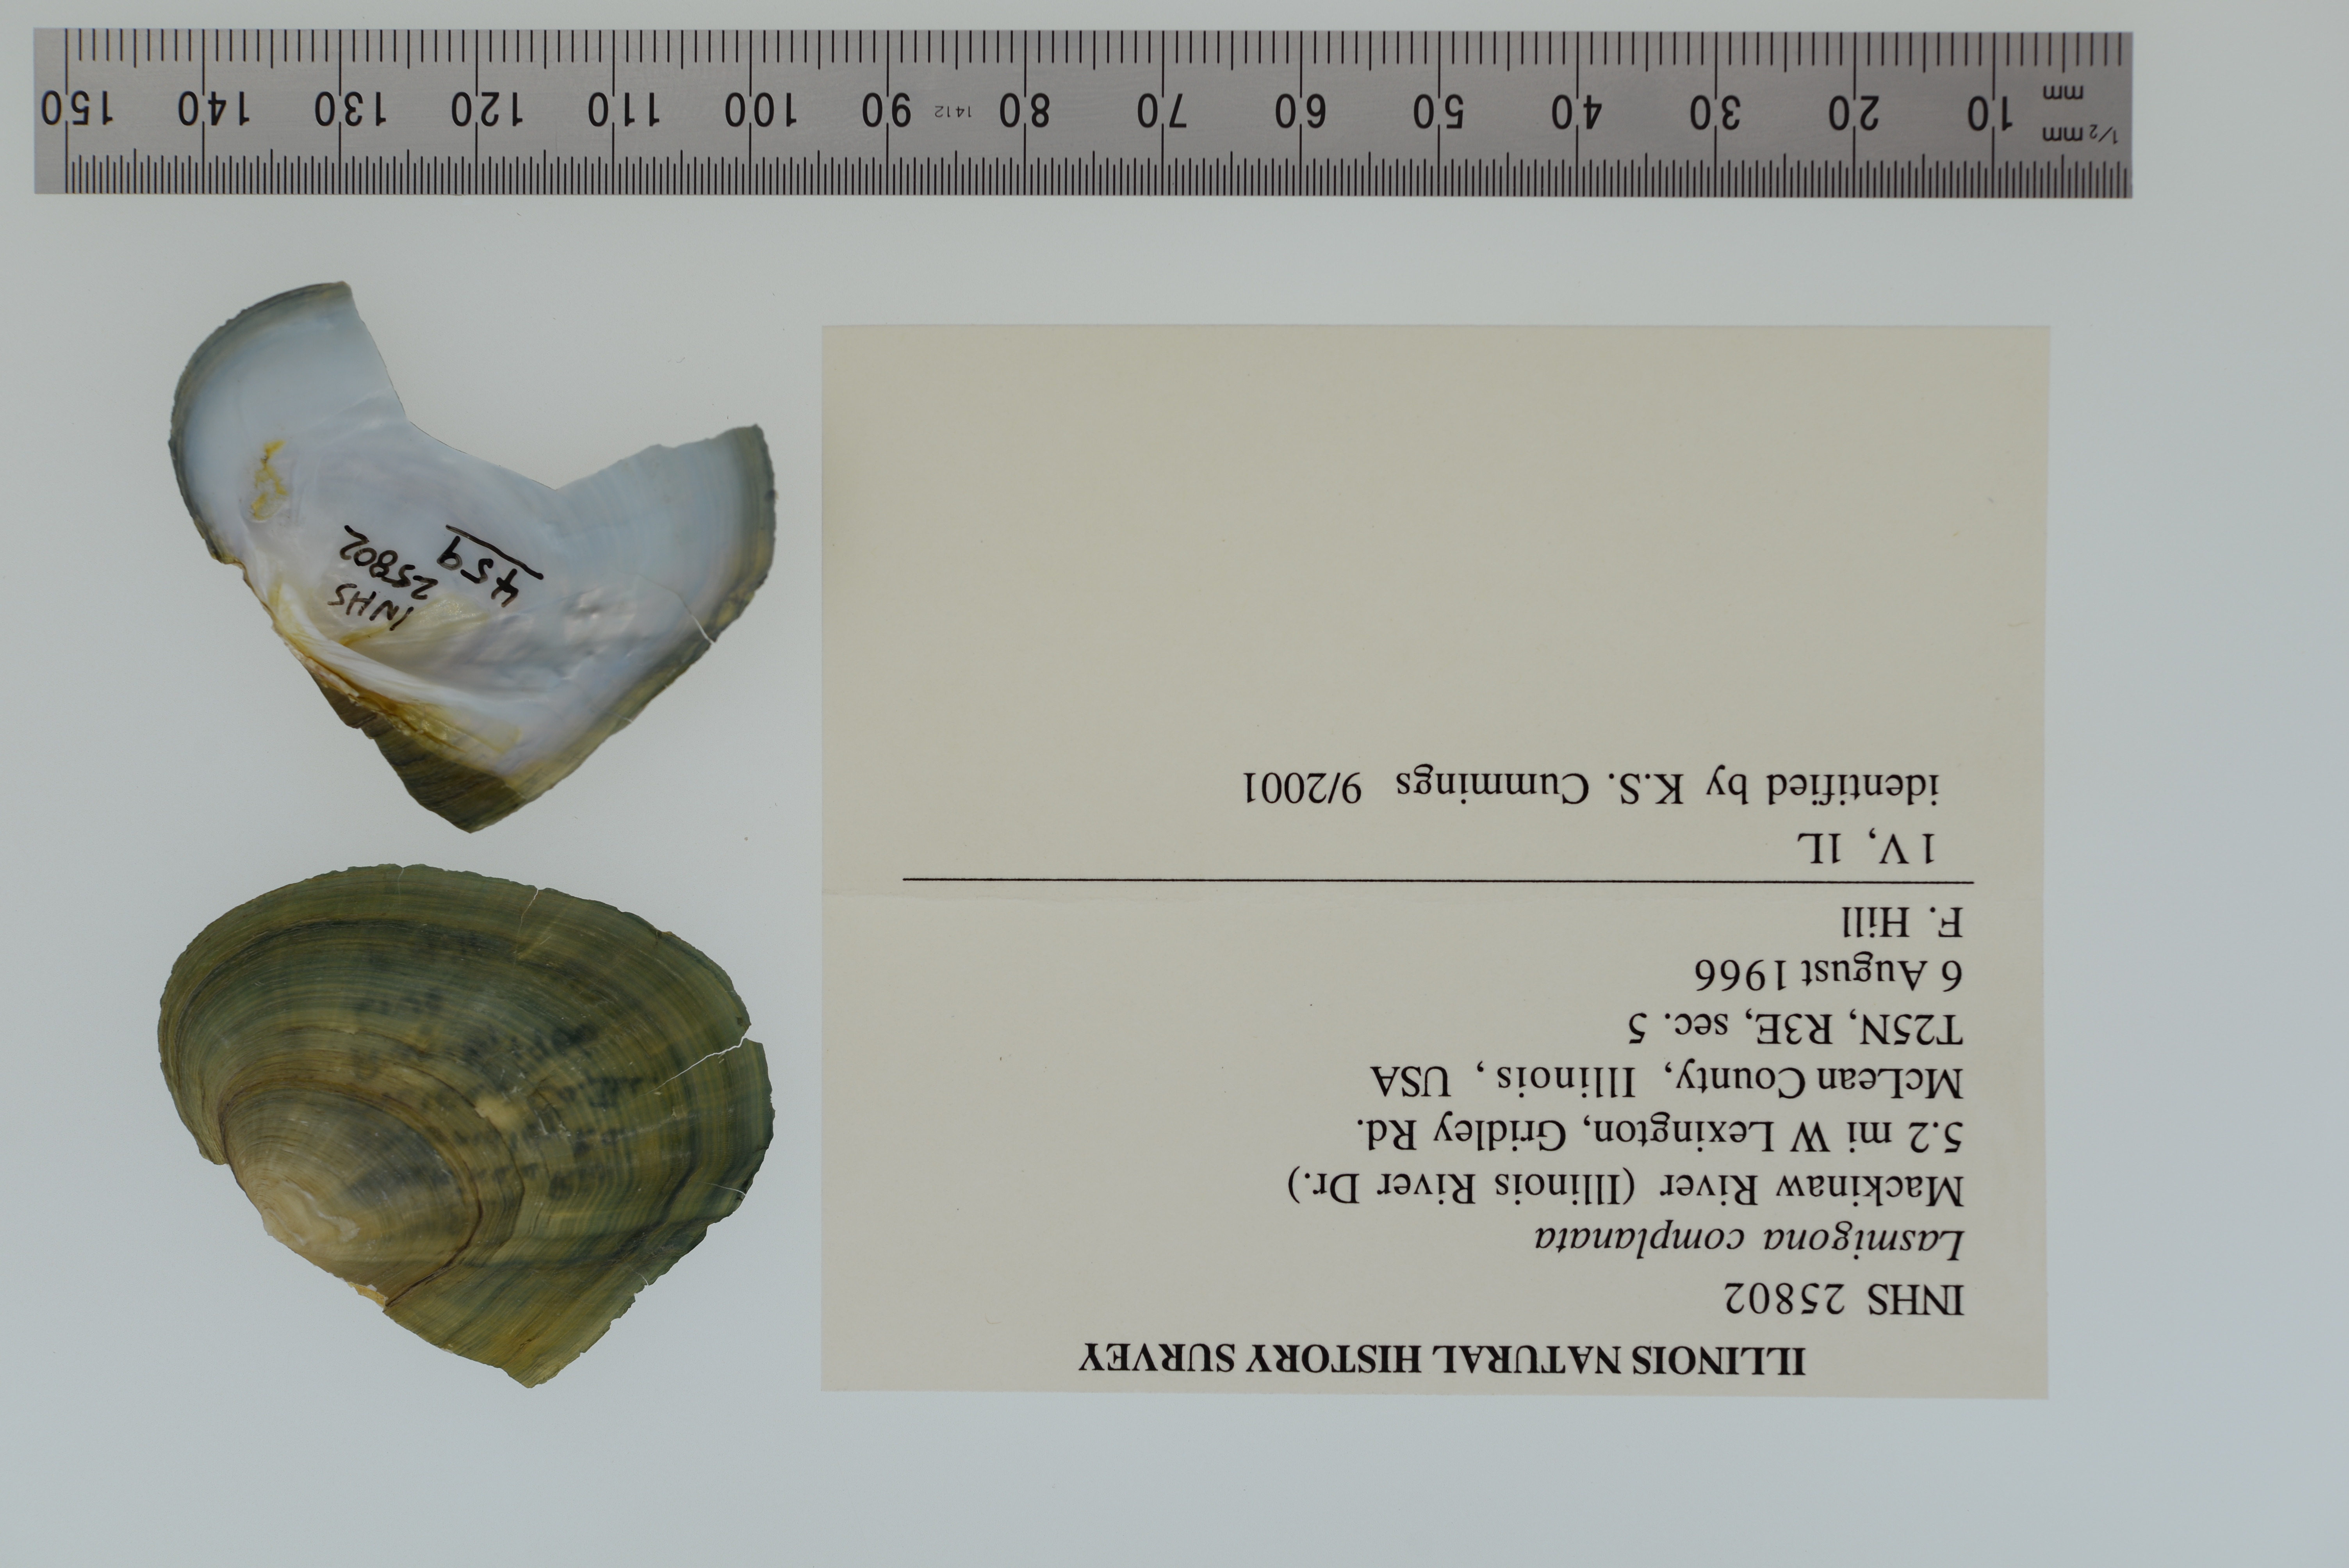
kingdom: Animalia
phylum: Mollusca
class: Bivalvia
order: Unionida
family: Unionidae
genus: Lasmigona
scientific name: Lasmigona complanata
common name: White heelsplitter
